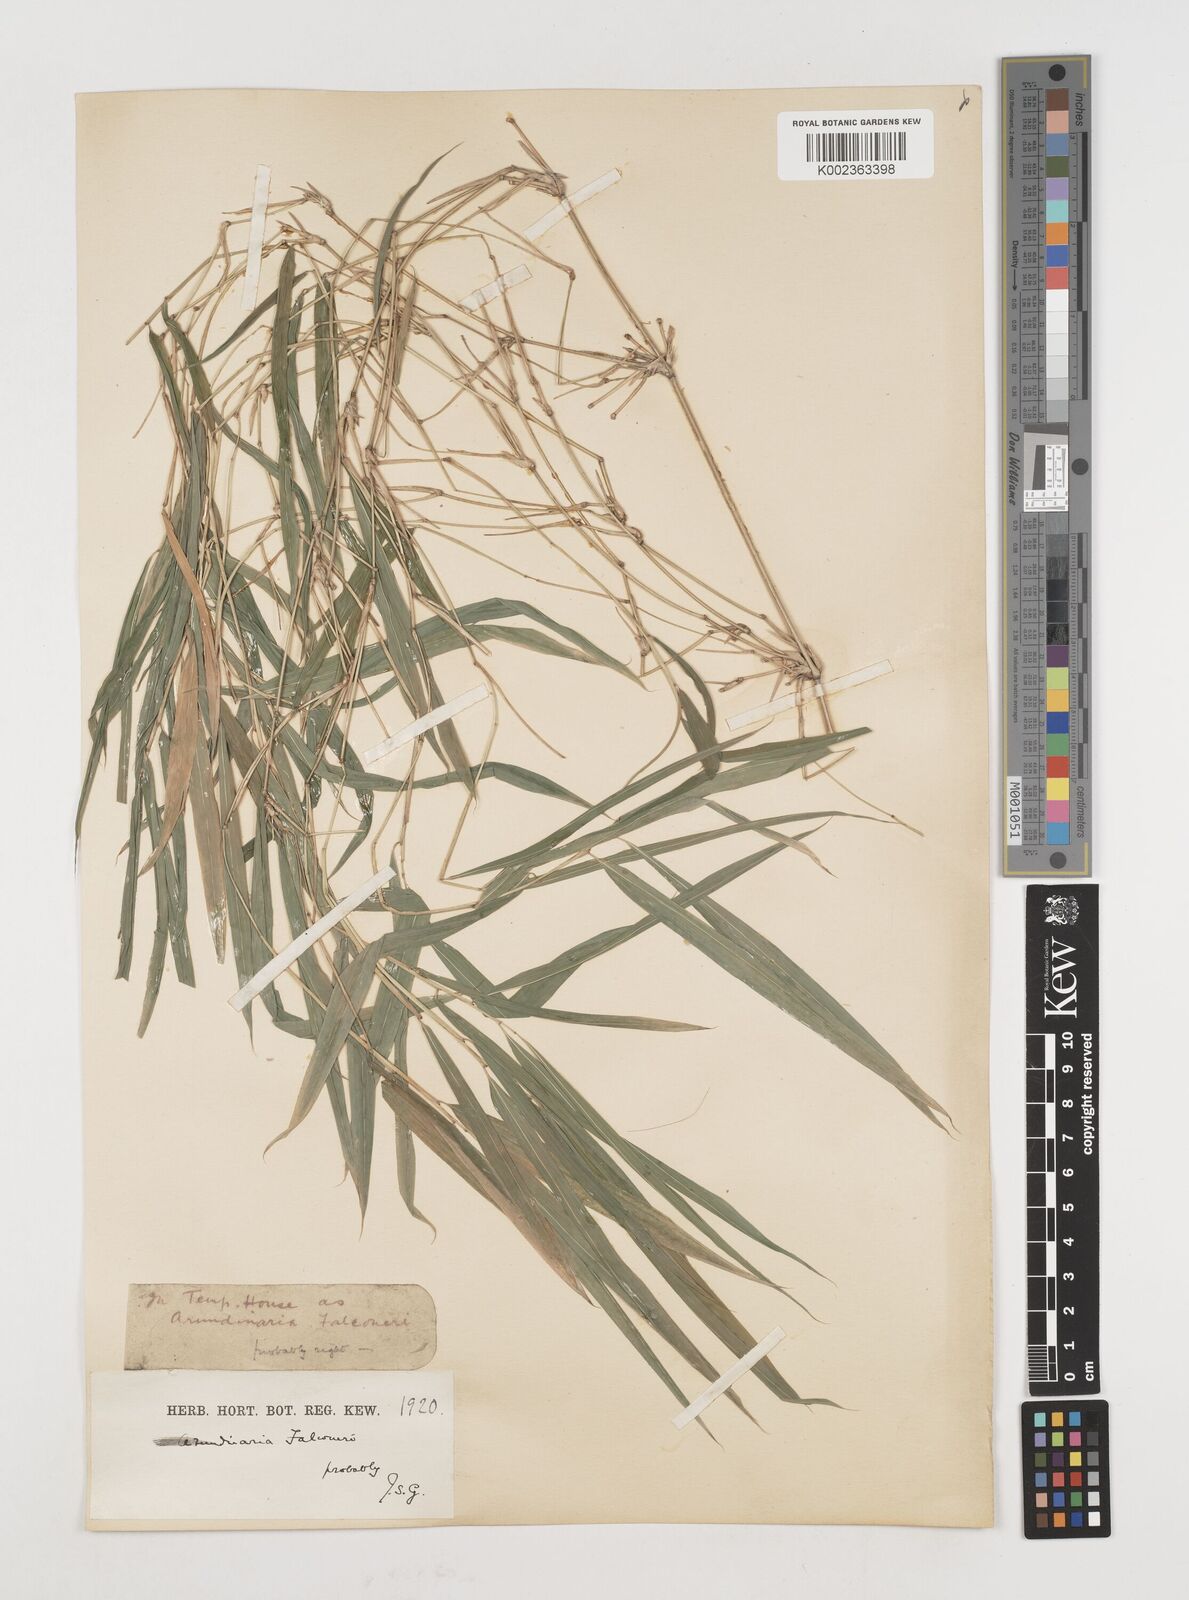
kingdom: Plantae
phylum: Tracheophyta
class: Liliopsida
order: Poales
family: Poaceae
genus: Himalayacalamus
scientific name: Himalayacalamus falconeri
